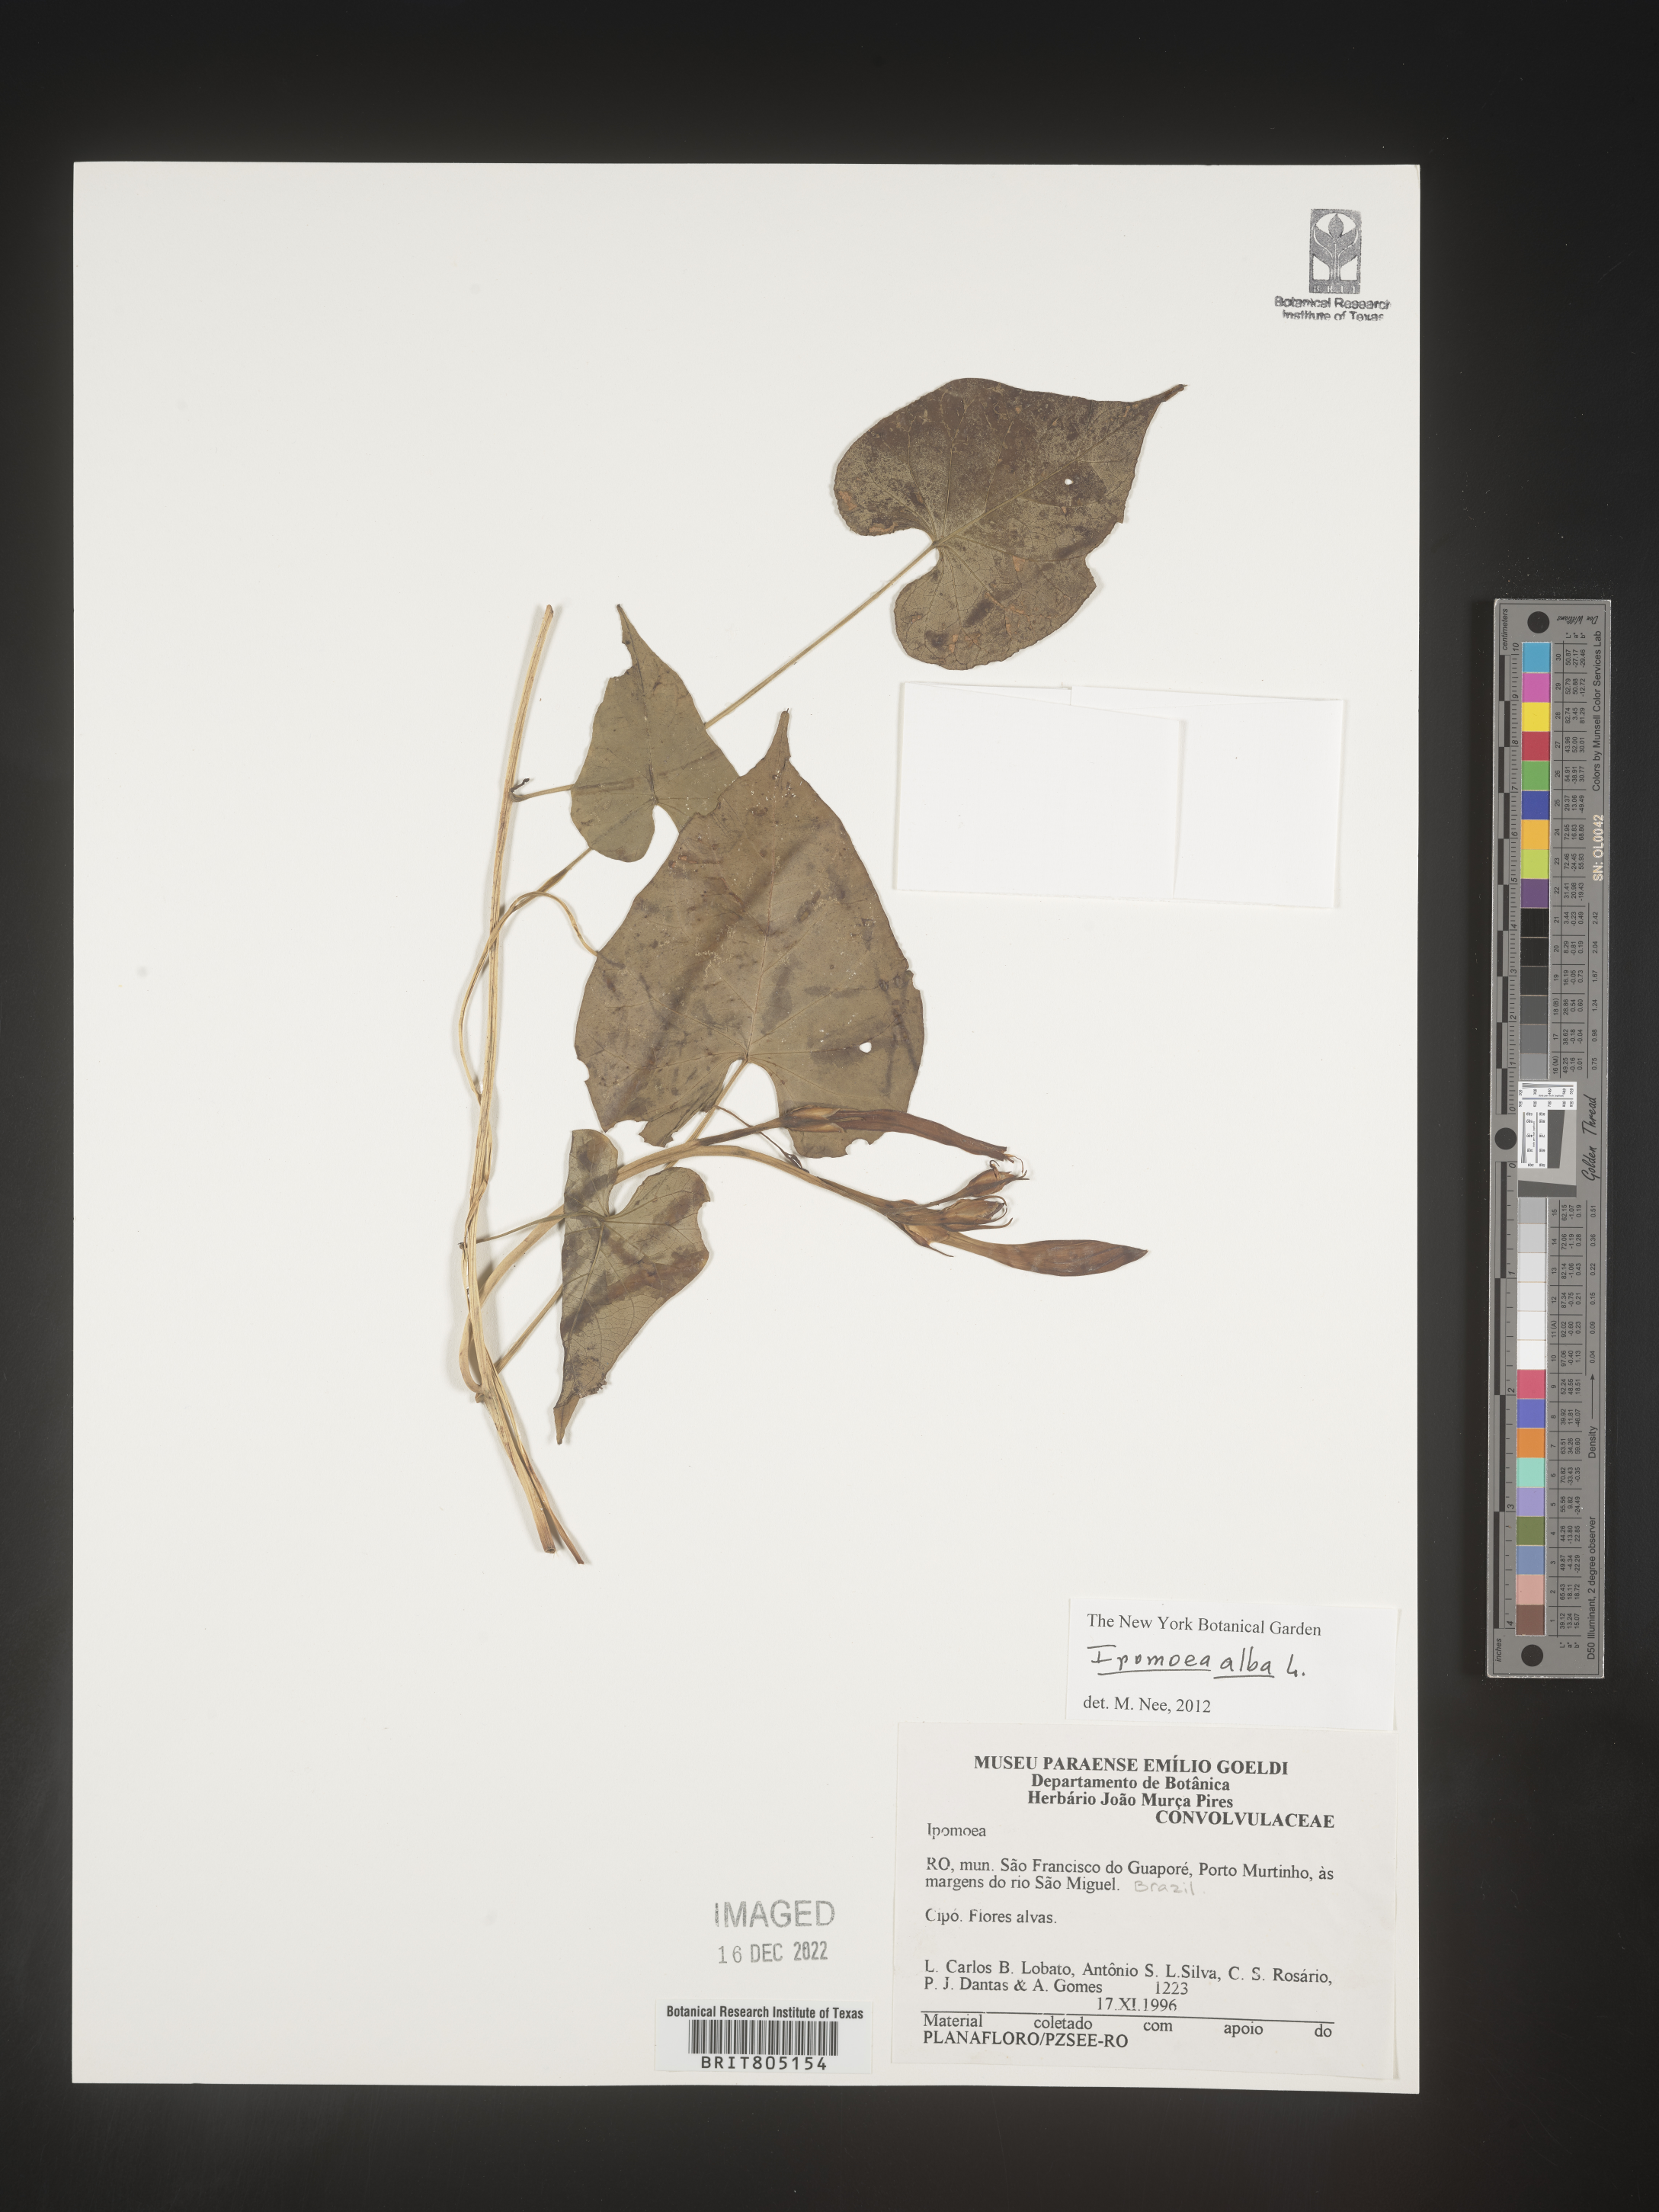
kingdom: Plantae
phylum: Tracheophyta
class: Magnoliopsida
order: Solanales
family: Convolvulaceae
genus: Ipomoea
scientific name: Ipomoea
